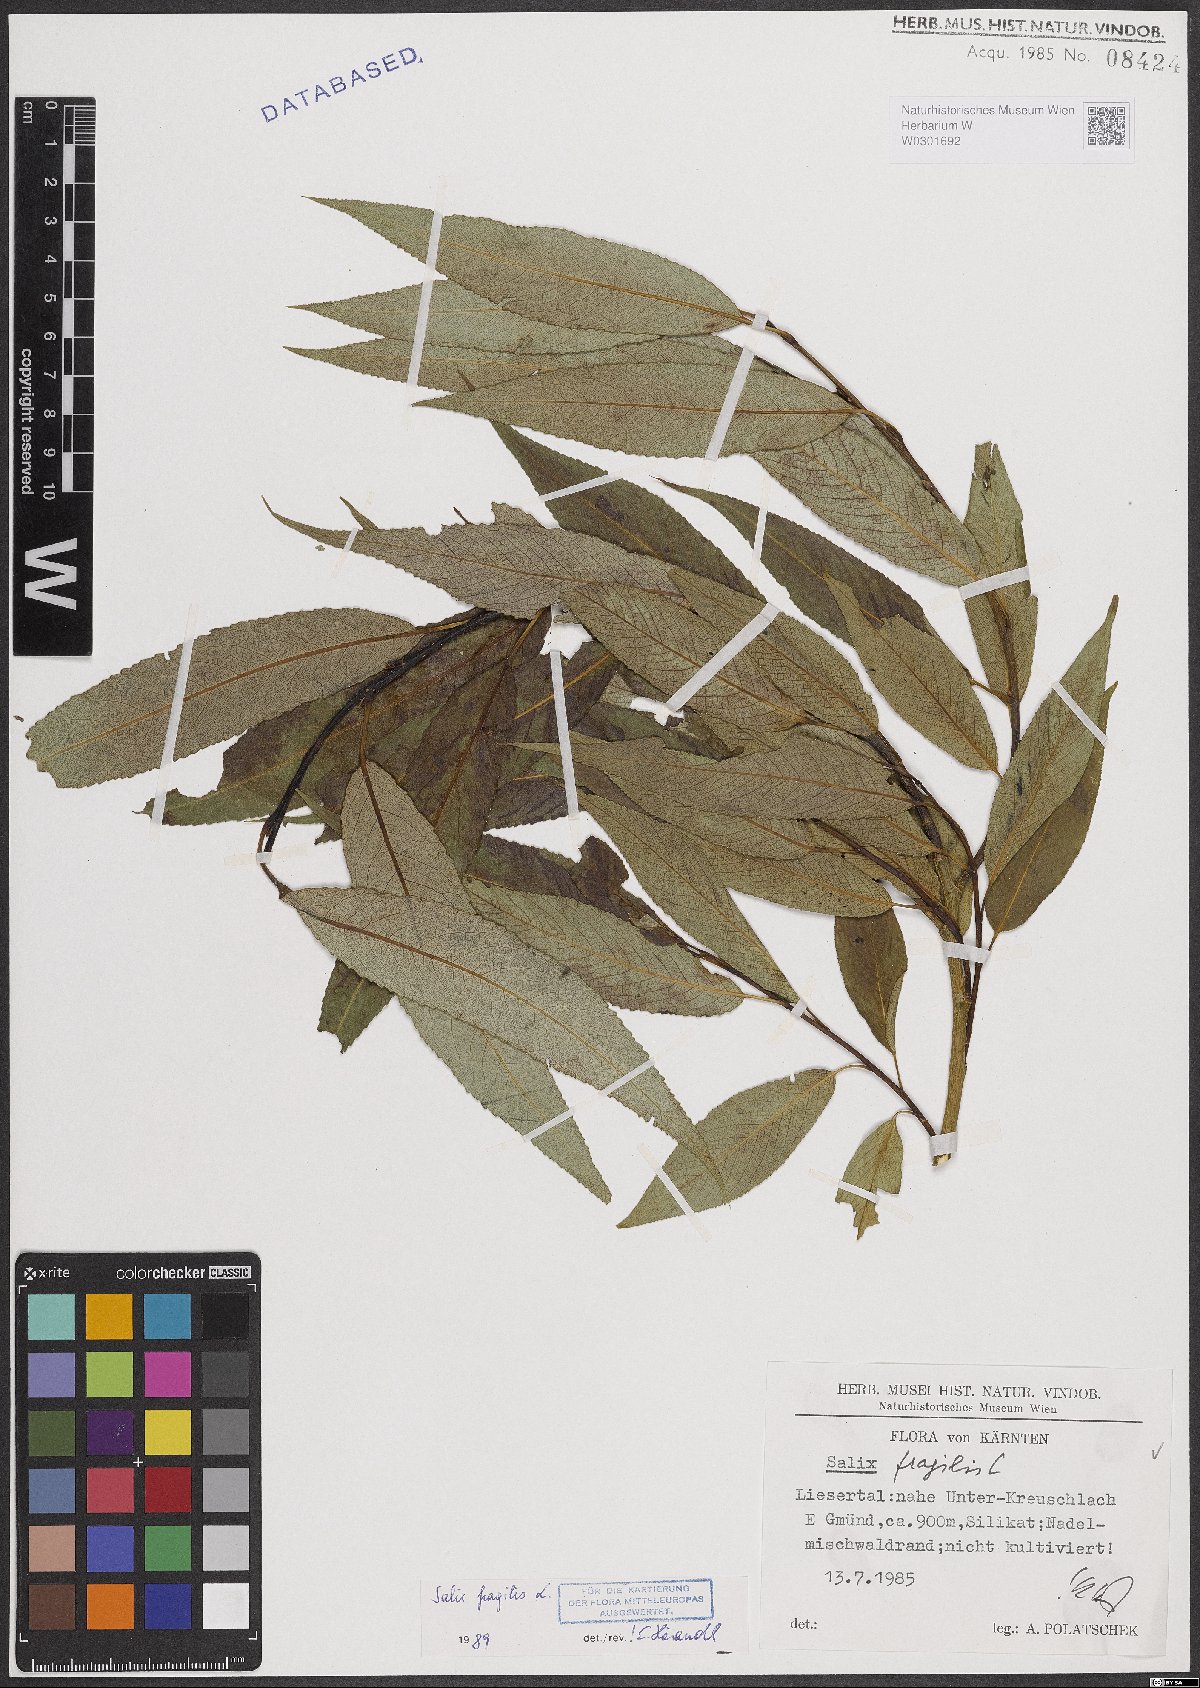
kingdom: Plantae
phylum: Tracheophyta
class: Magnoliopsida
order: Malpighiales
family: Salicaceae
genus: Salix
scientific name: Salix fragilis
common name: Crack willow
